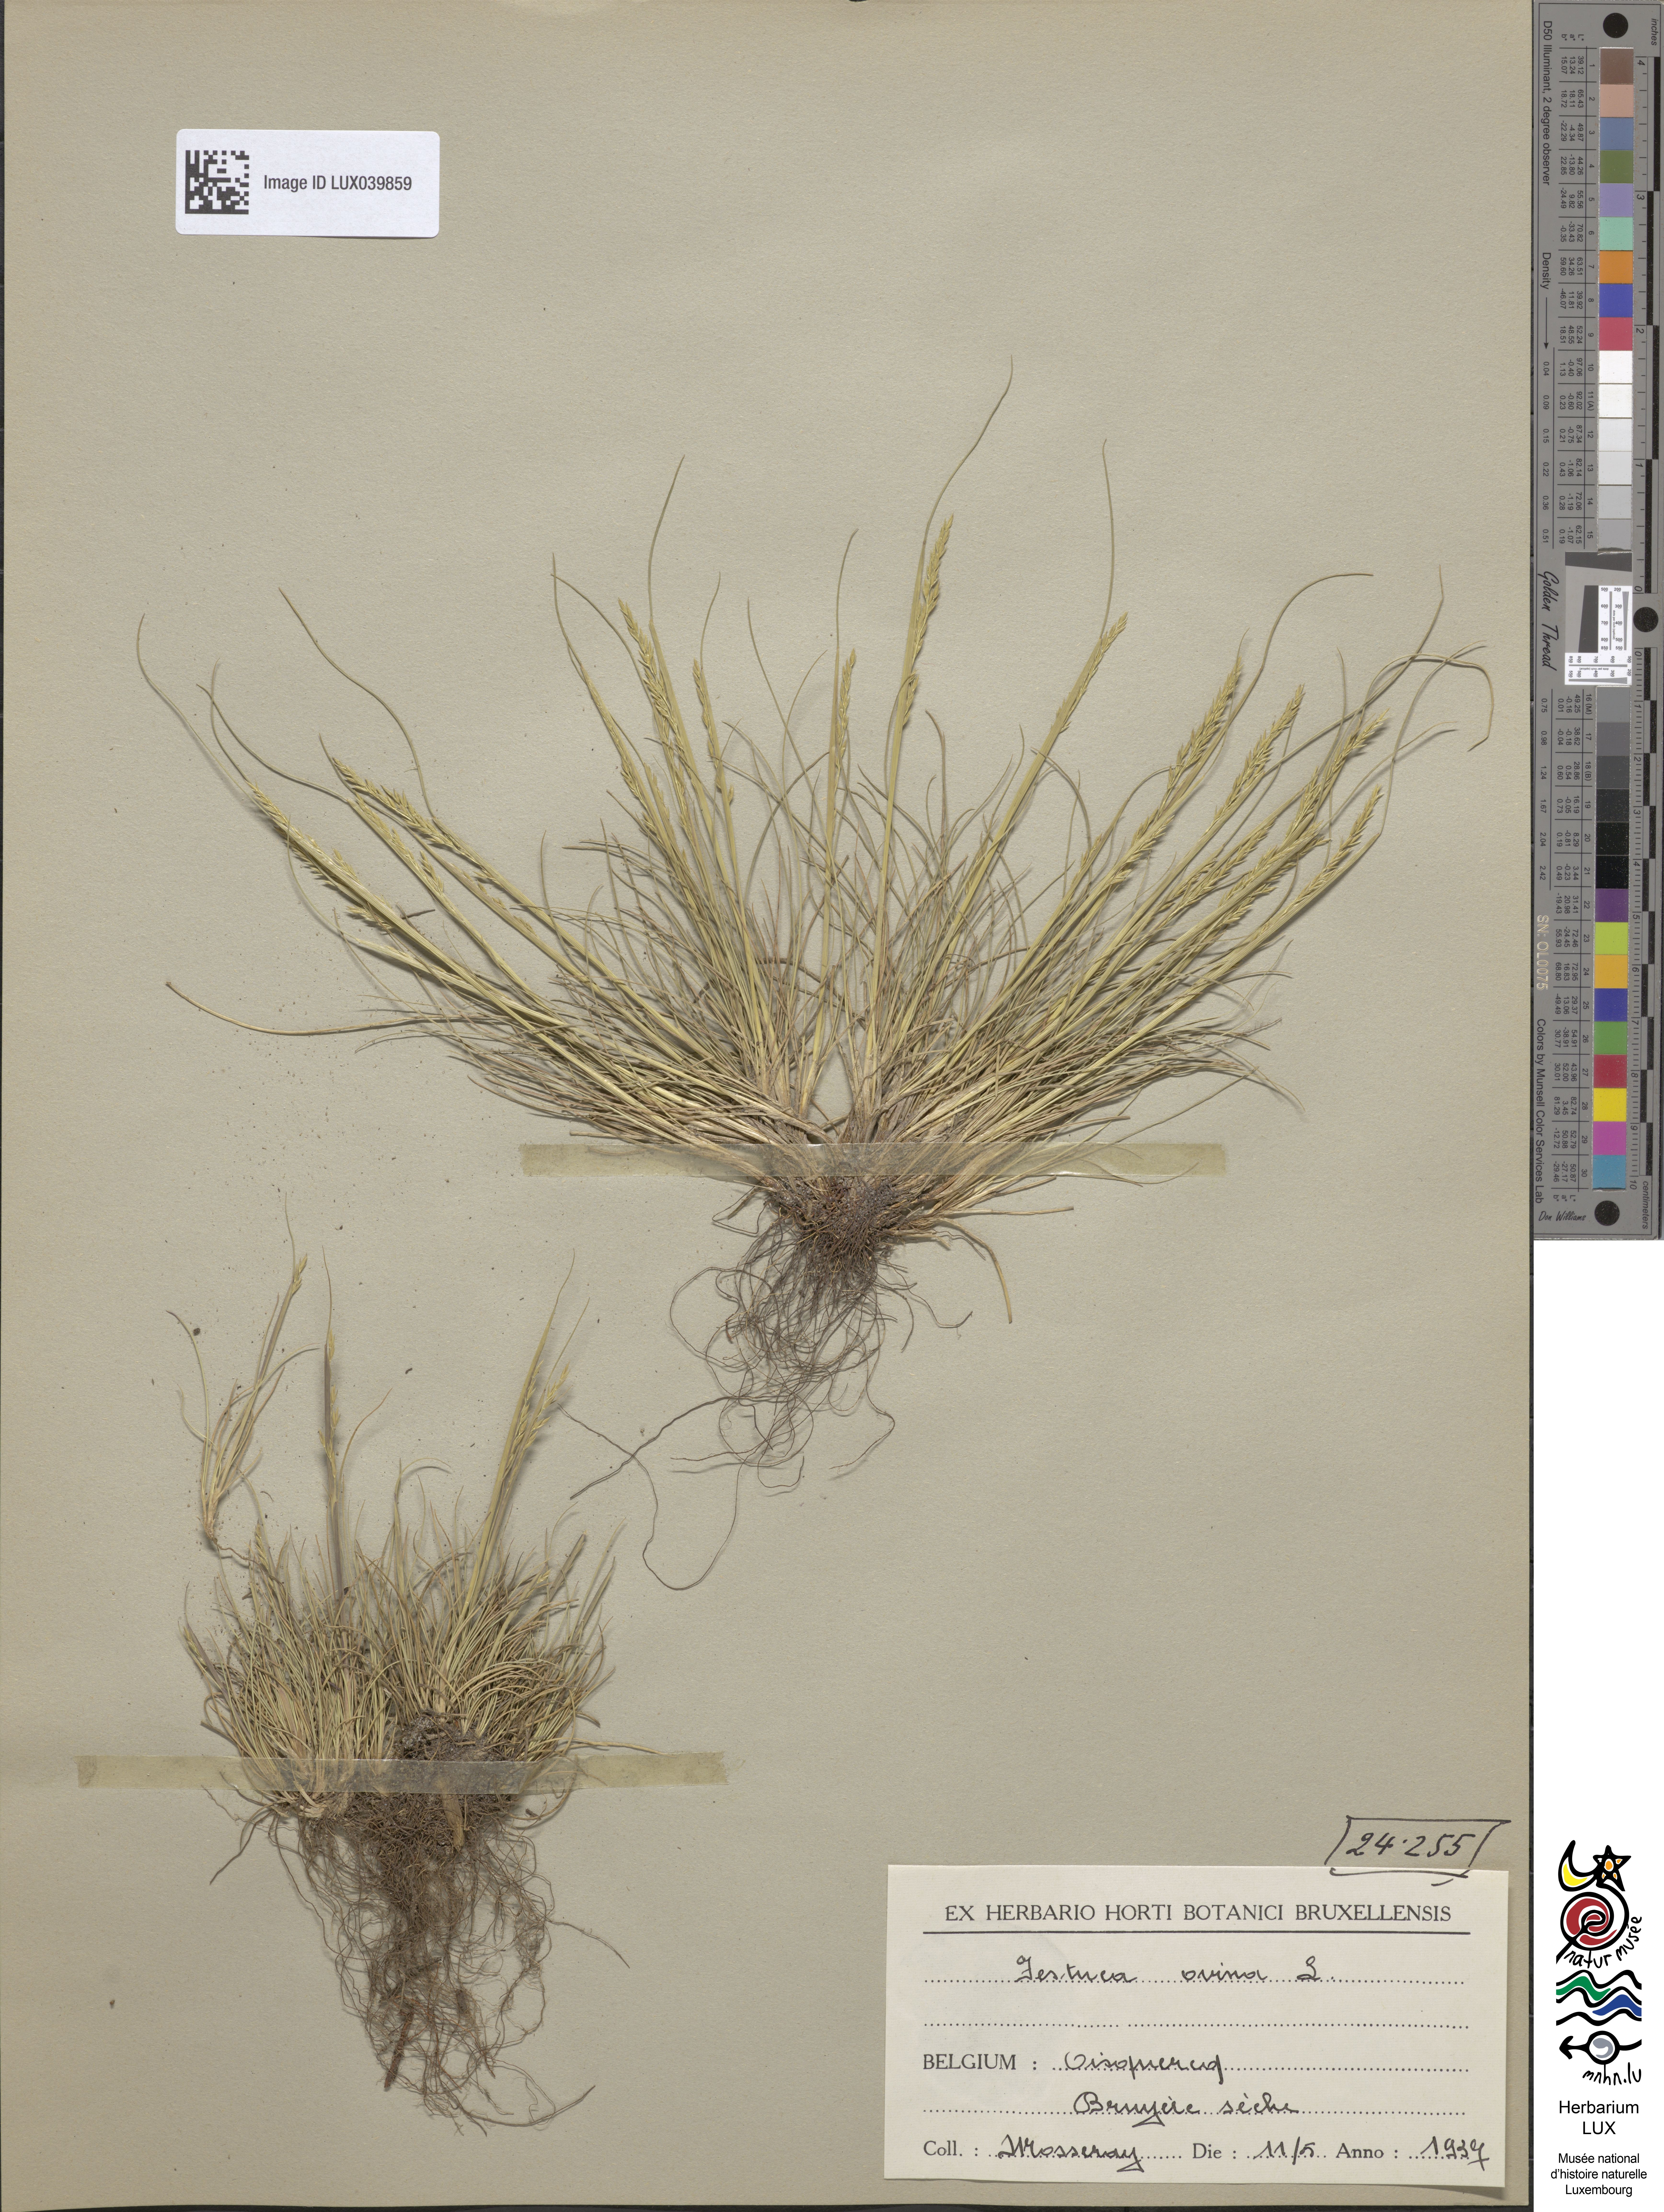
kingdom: Plantae
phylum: Tracheophyta
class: Liliopsida
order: Poales
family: Poaceae
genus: Festuca
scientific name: Festuca ovina
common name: Sheep fescue
